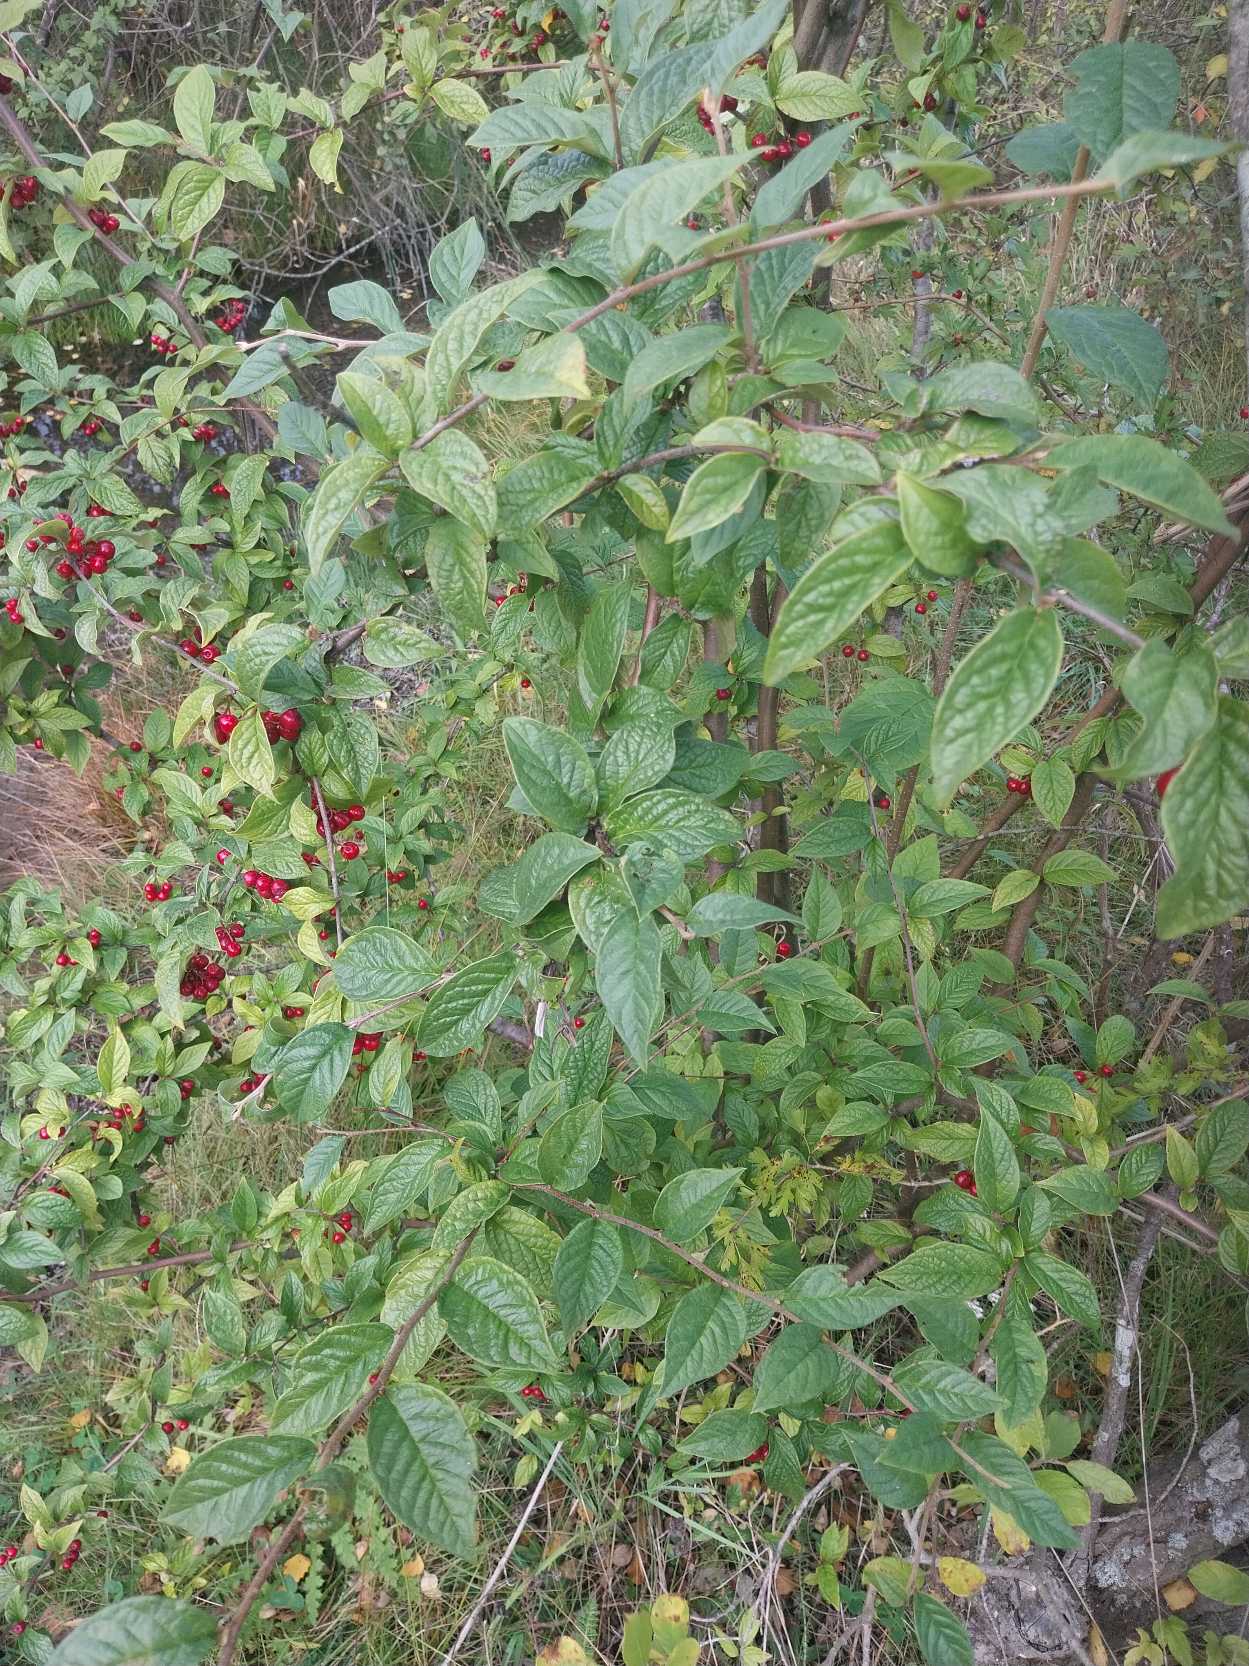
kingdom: Plantae
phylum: Tracheophyta
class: Magnoliopsida
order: Rosales
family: Rosaceae
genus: Cotoneaster
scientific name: Cotoneaster bullatus
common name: Buklet dværgmispel
